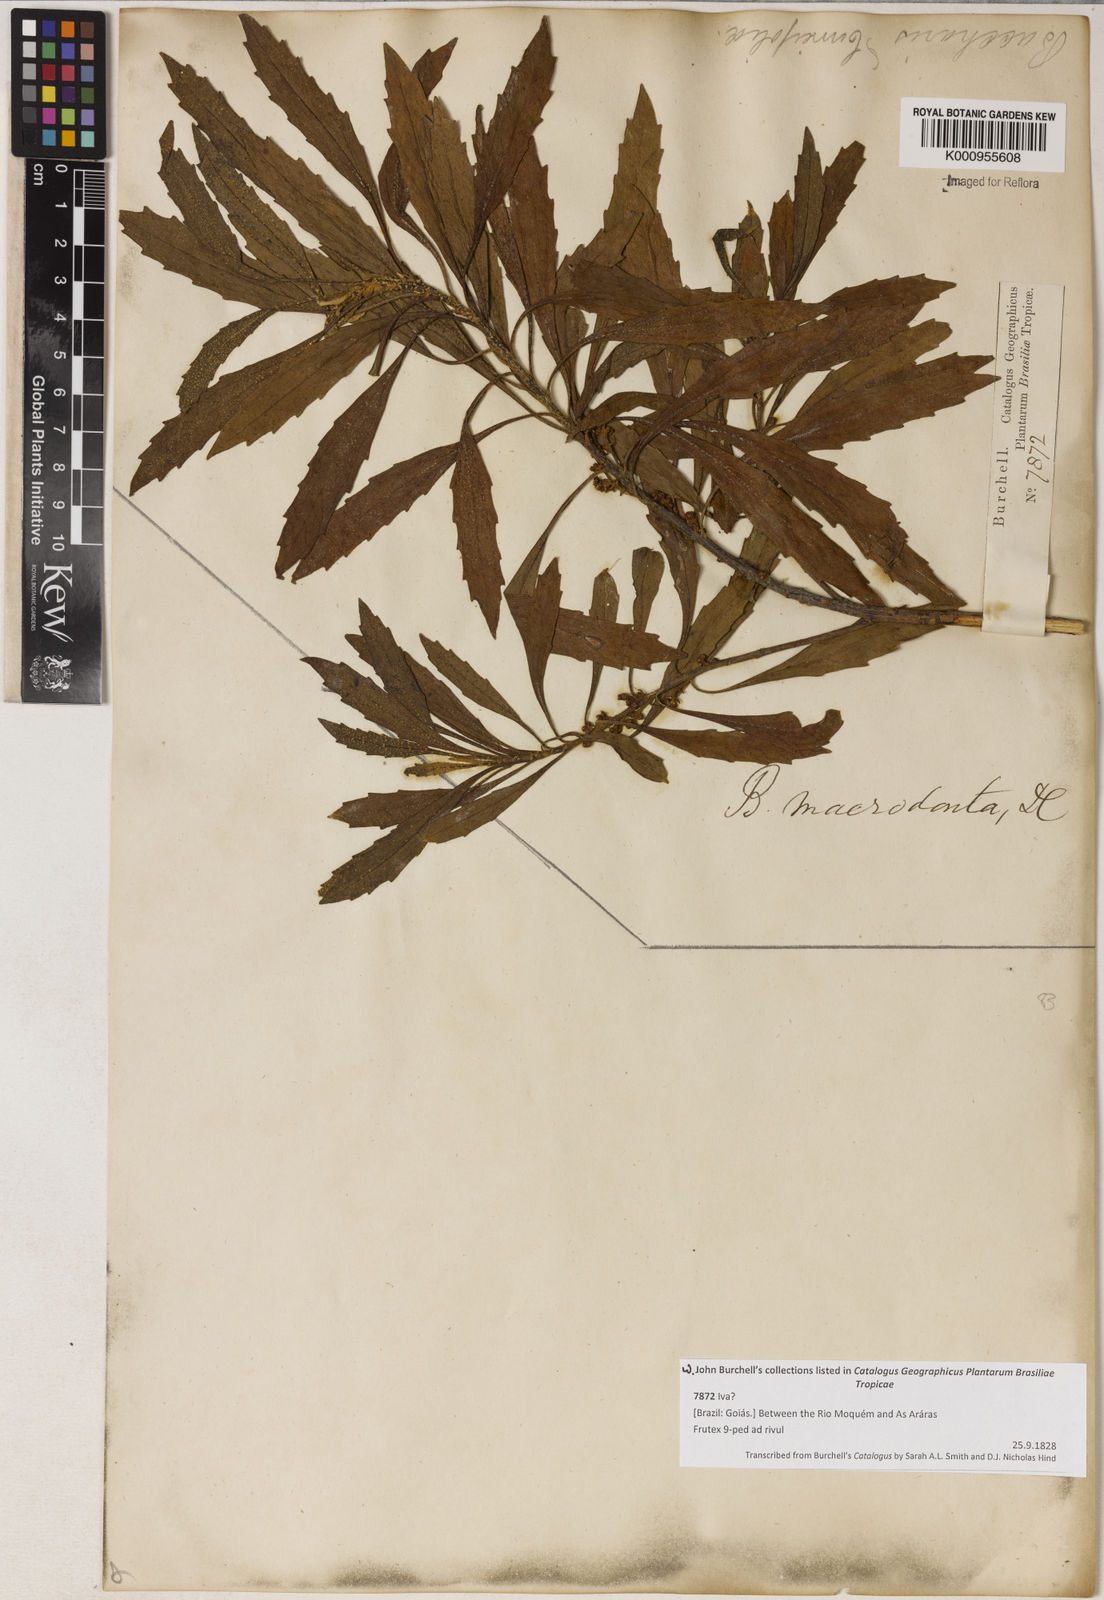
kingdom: Plantae
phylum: Tracheophyta
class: Magnoliopsida
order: Asterales
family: Asteraceae
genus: Baccharis
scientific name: Baccharis dentata
